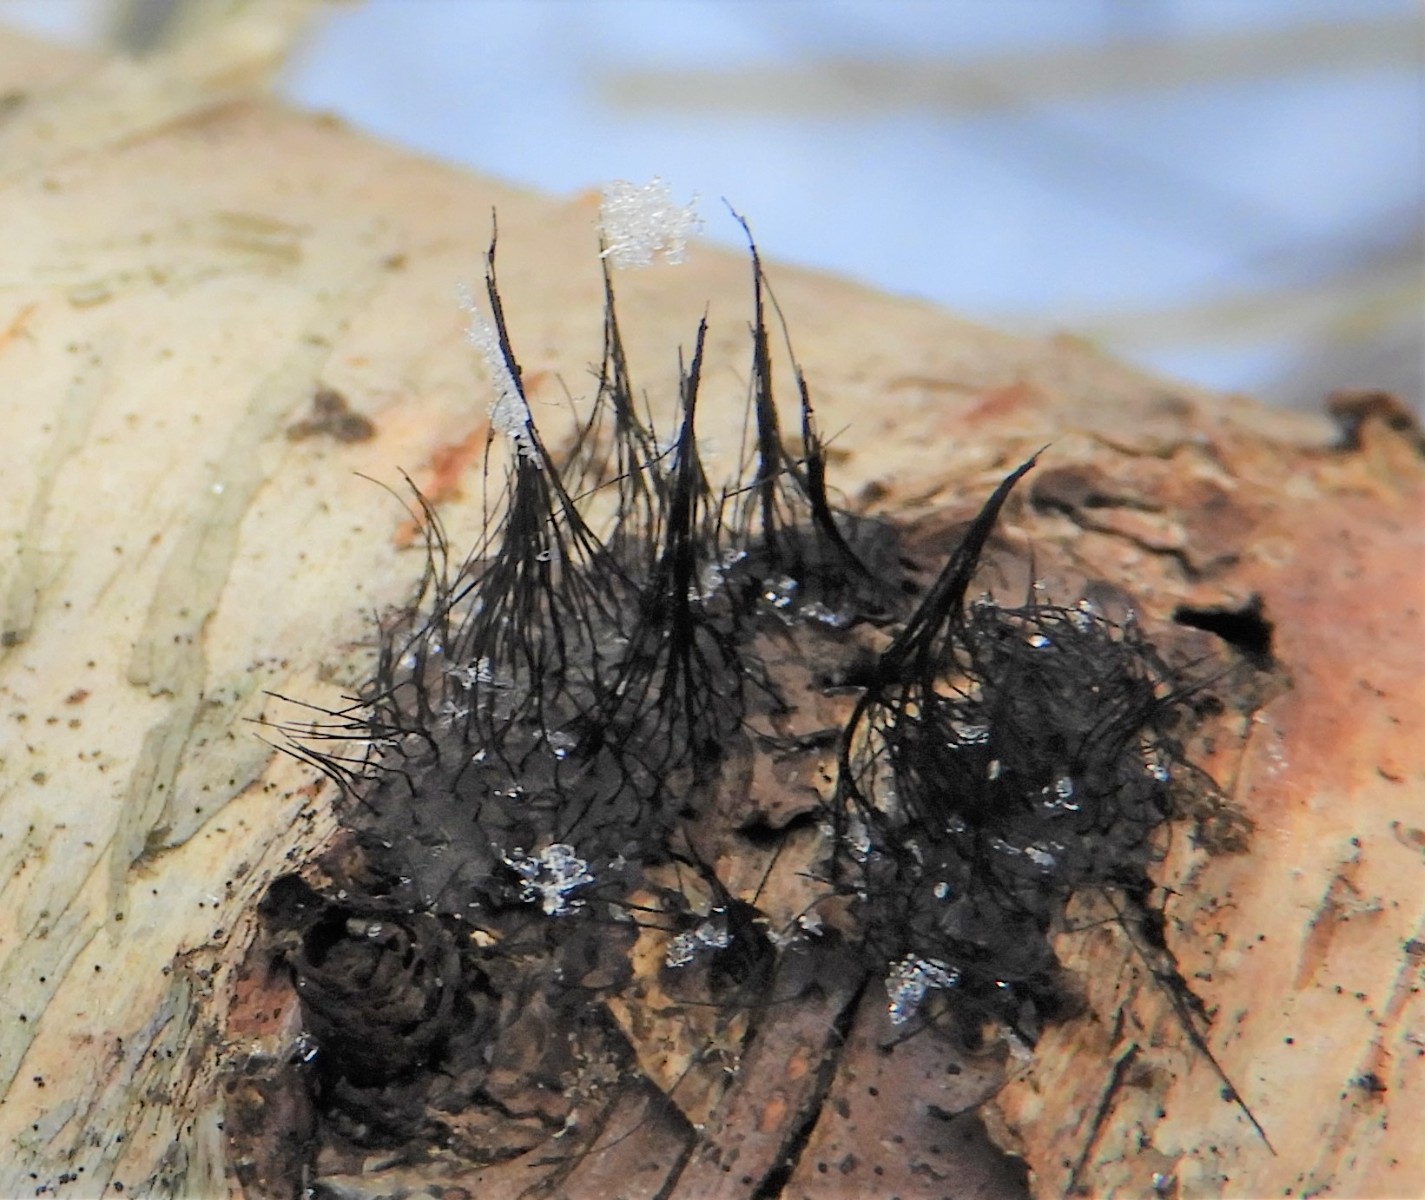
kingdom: Protozoa
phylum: Mycetozoa
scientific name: Mycetozoa
